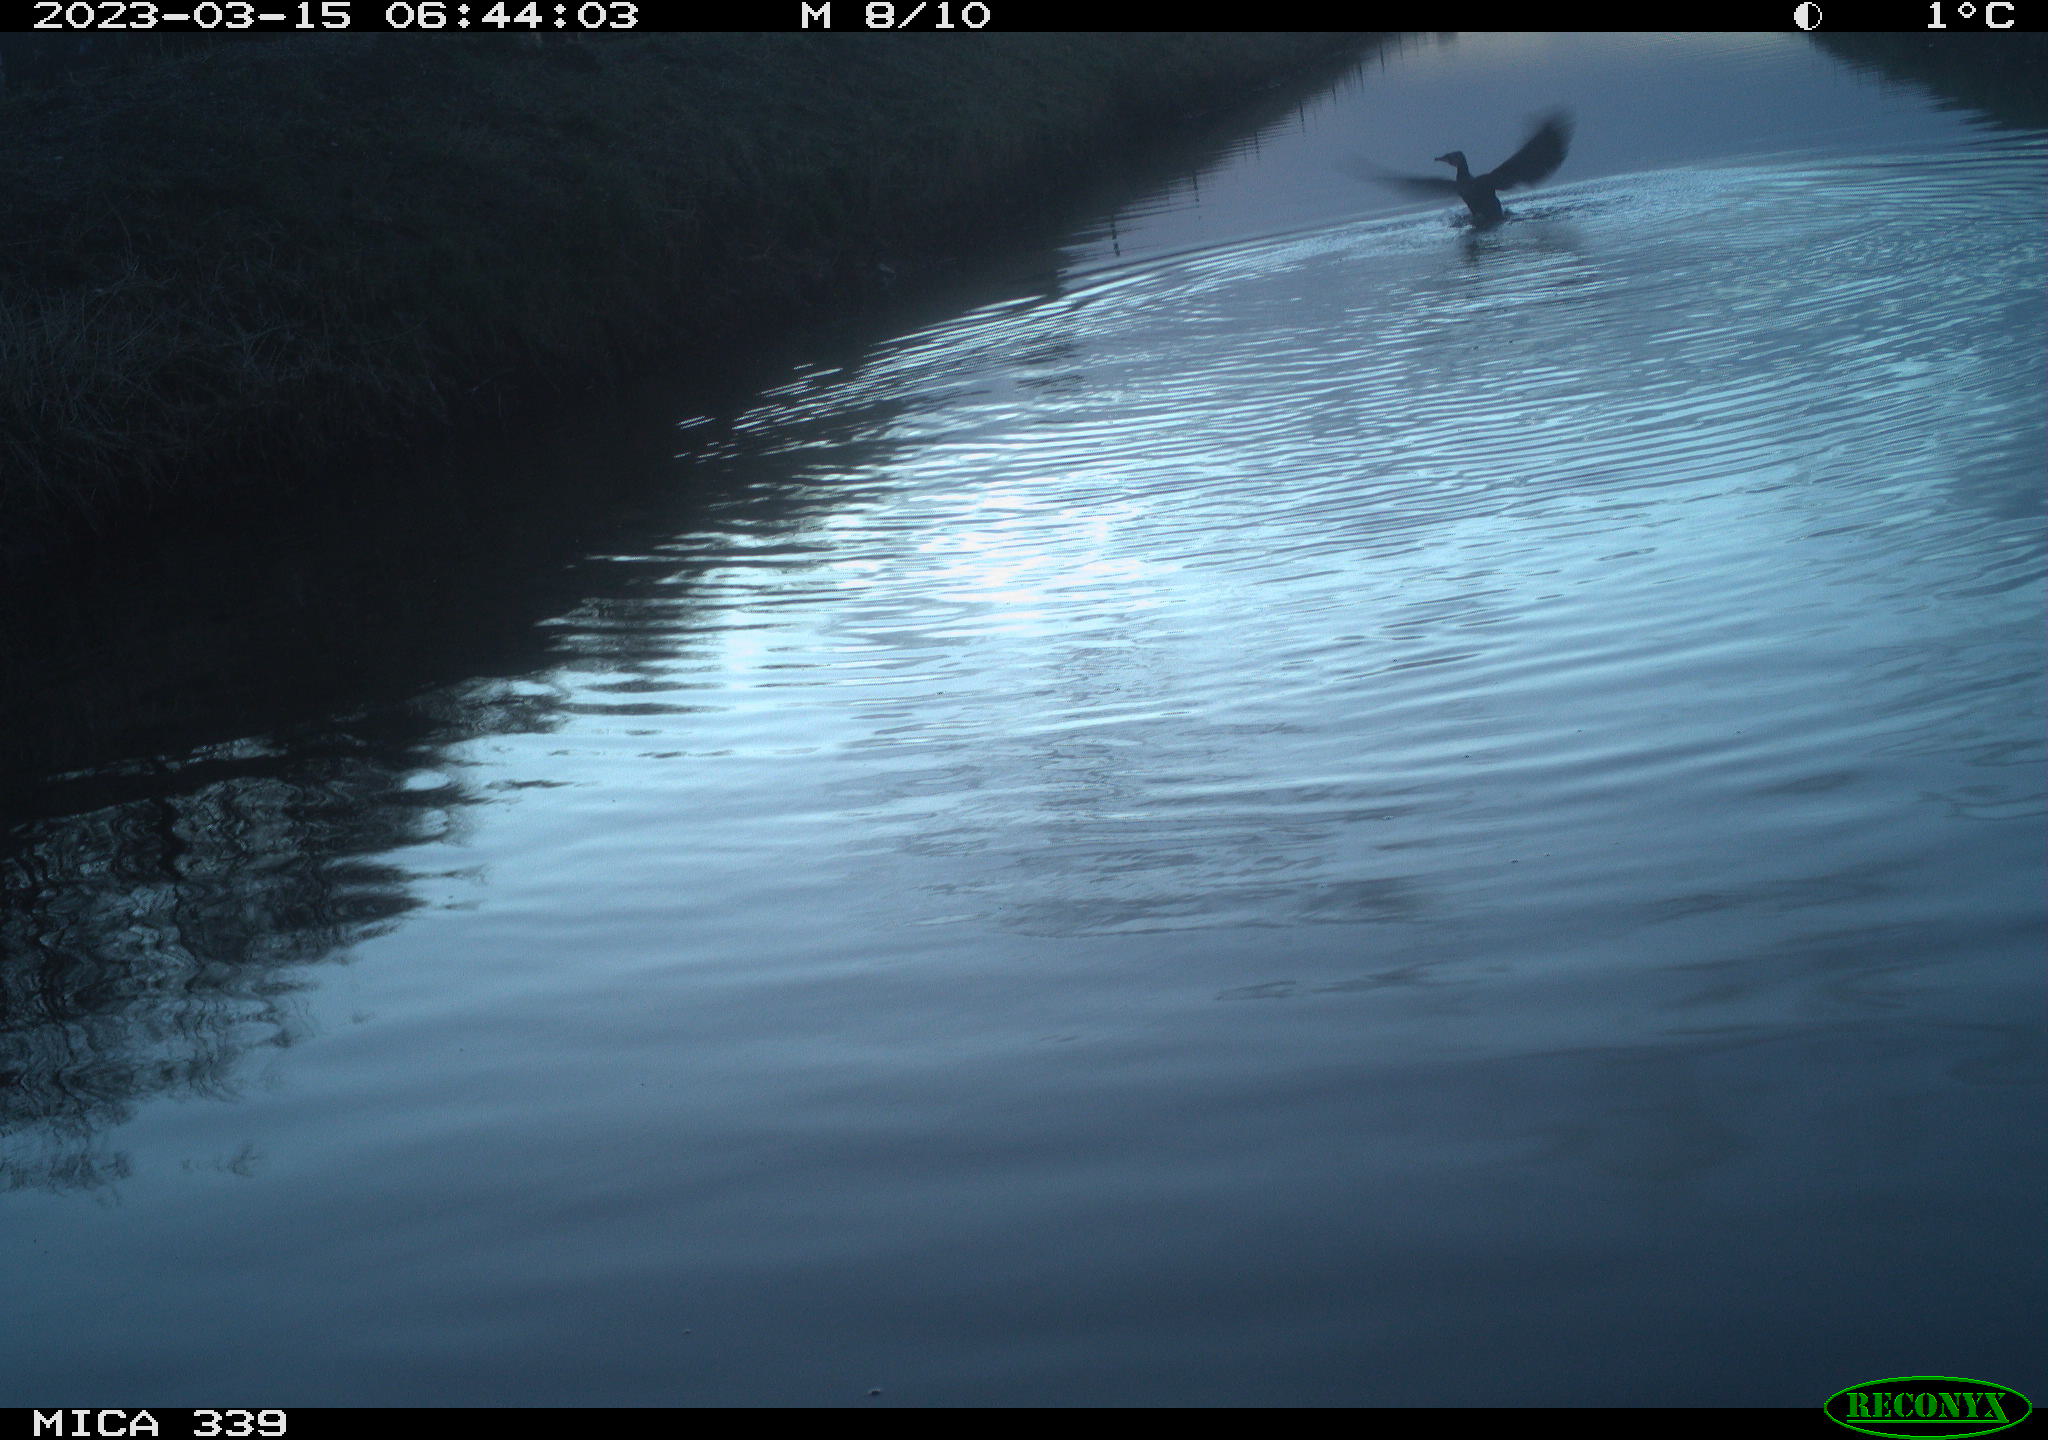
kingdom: Animalia
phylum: Chordata
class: Aves
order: Pelecaniformes
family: Ardeidae
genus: Ardea
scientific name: Ardea
